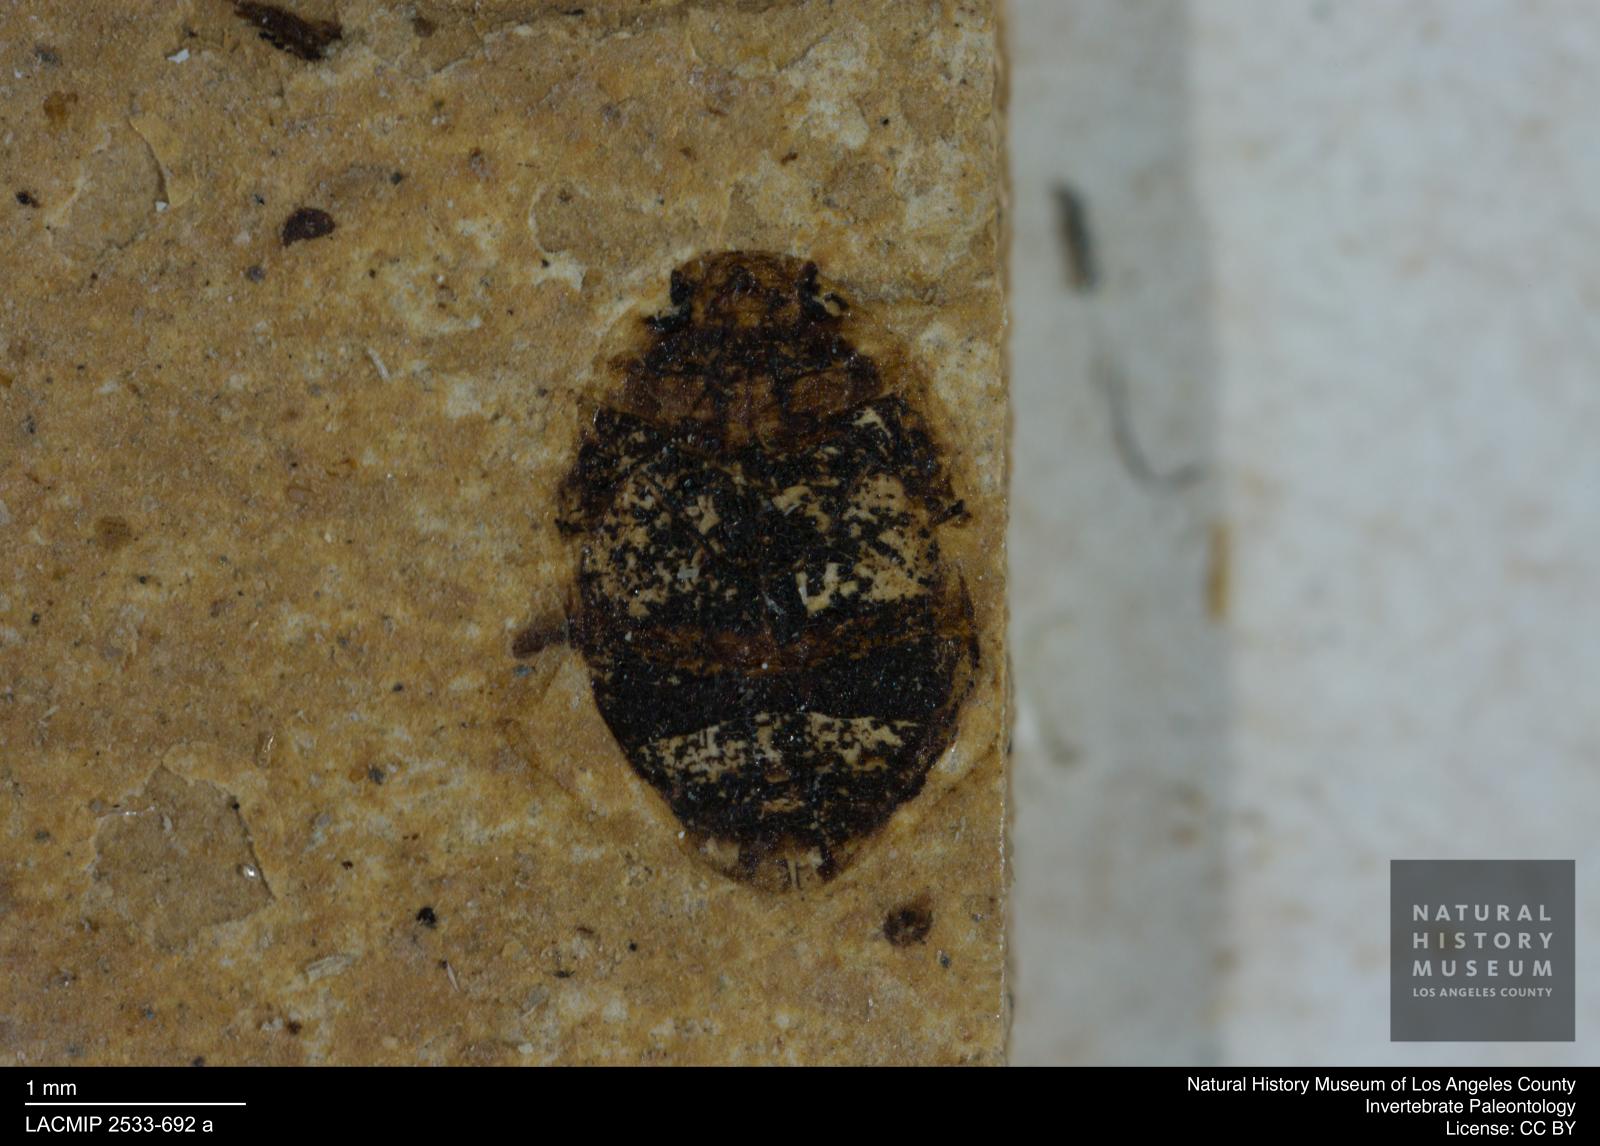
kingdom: Animalia
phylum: Arthropoda
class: Insecta
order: Coleoptera
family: Dytiscidae
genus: Oreodytes
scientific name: Oreodytes cryptolineatus
